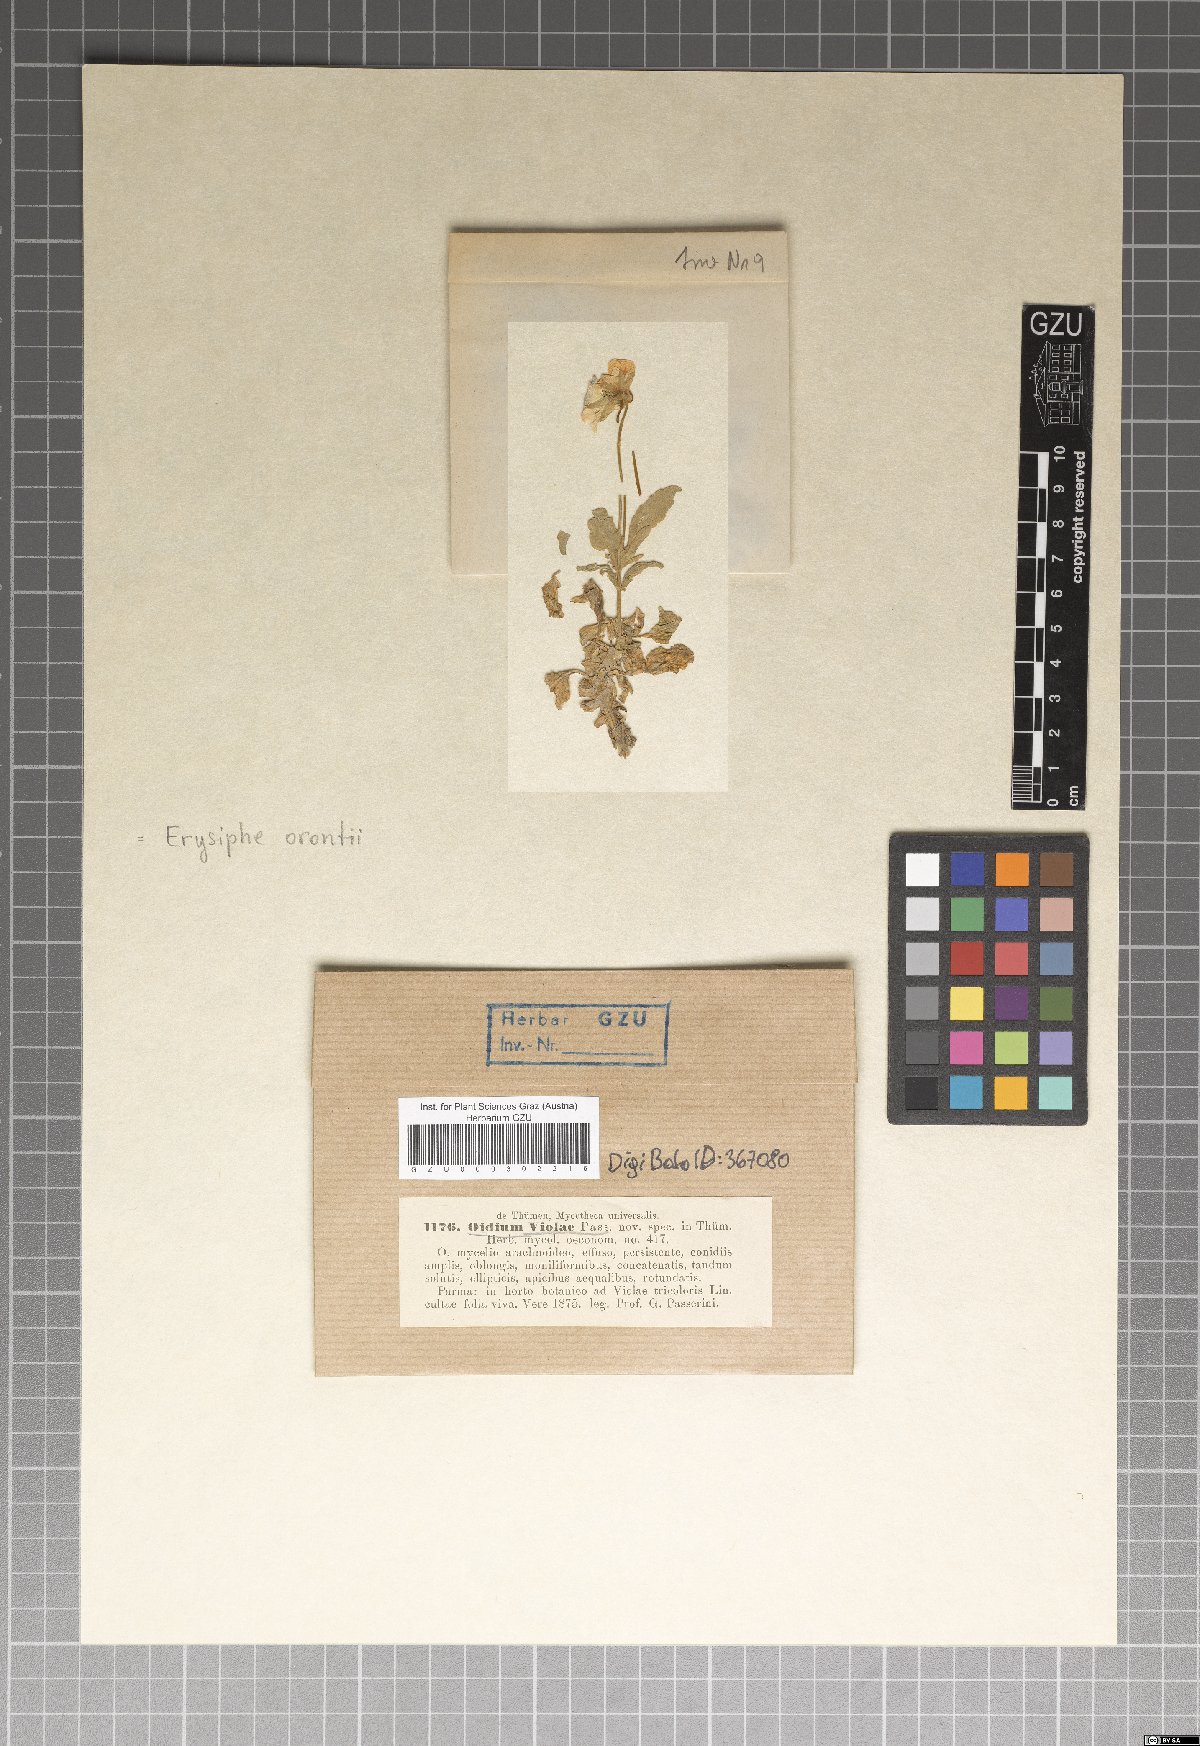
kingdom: Fungi
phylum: Ascomycota
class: Leotiomycetes
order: Helotiales
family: Erysiphaceae
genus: Euoidium
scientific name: Euoidium violae
